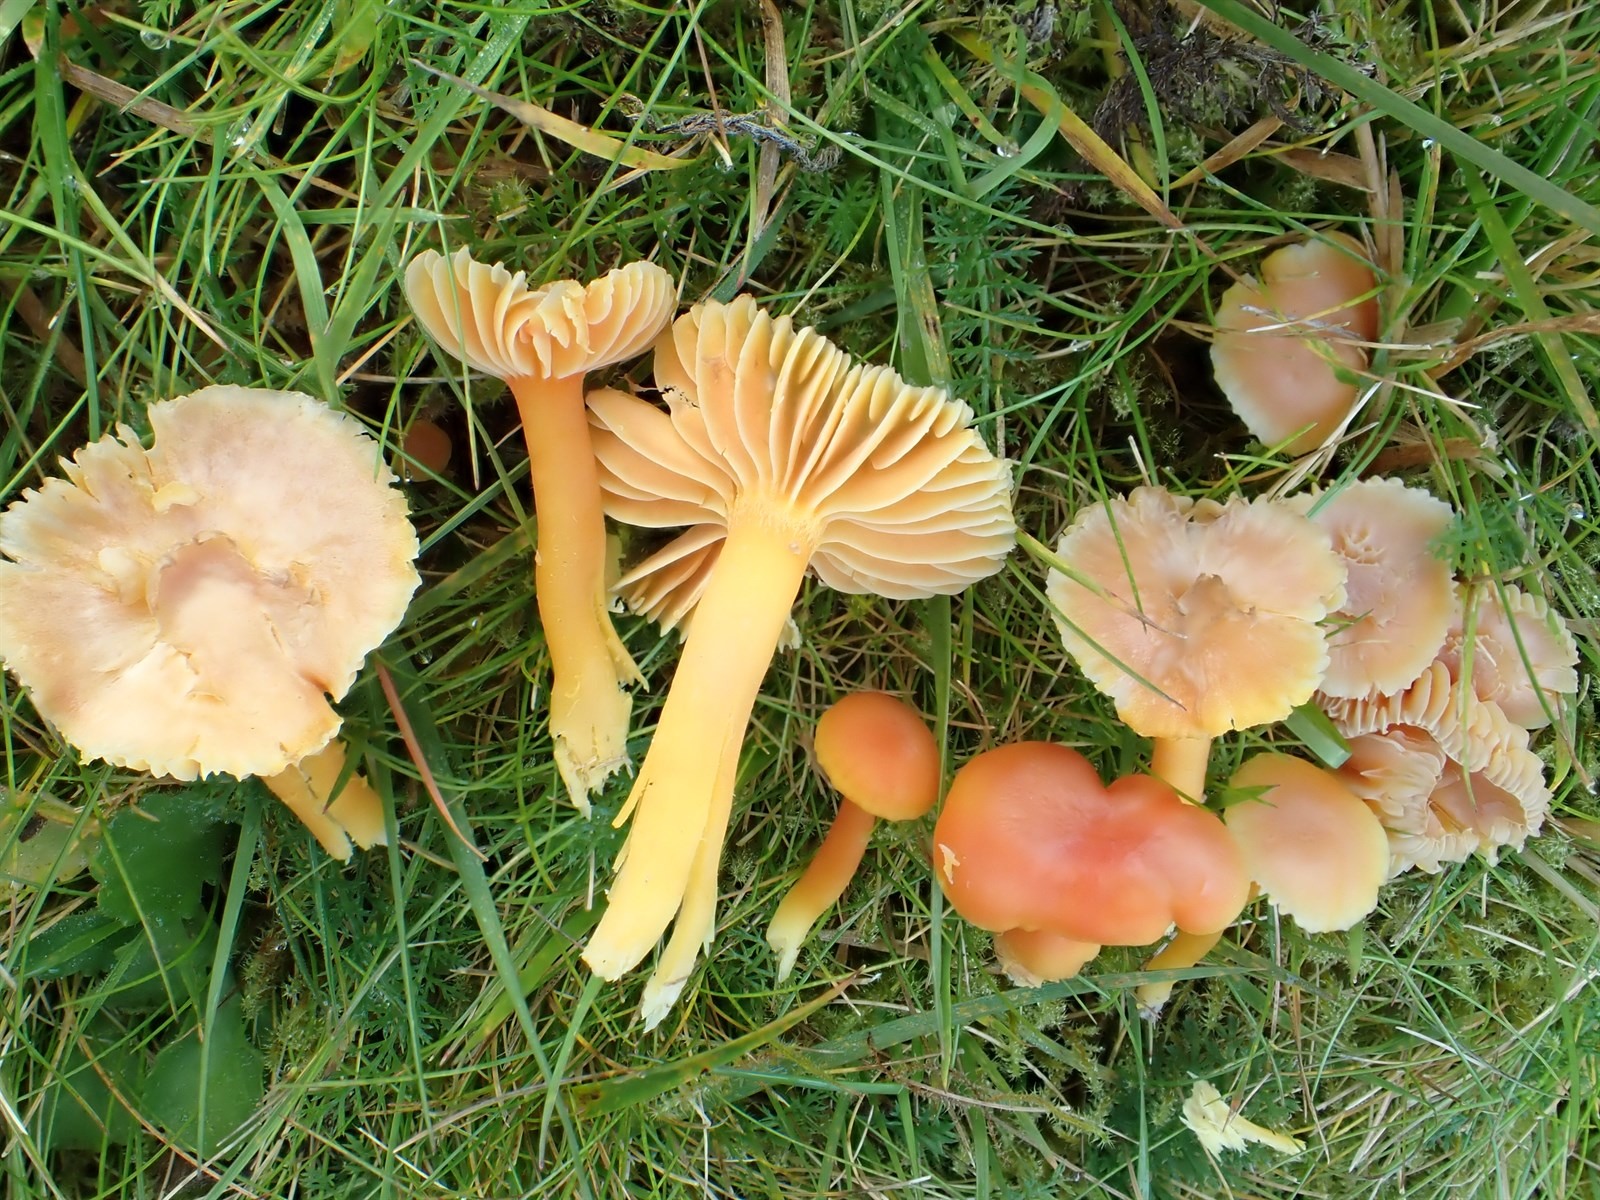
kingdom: Fungi
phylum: Basidiomycota
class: Agaricomycetes
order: Agaricales
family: Hygrophoraceae
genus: Hygrocybe
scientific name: Hygrocybe reidii
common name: Honey waxcap
